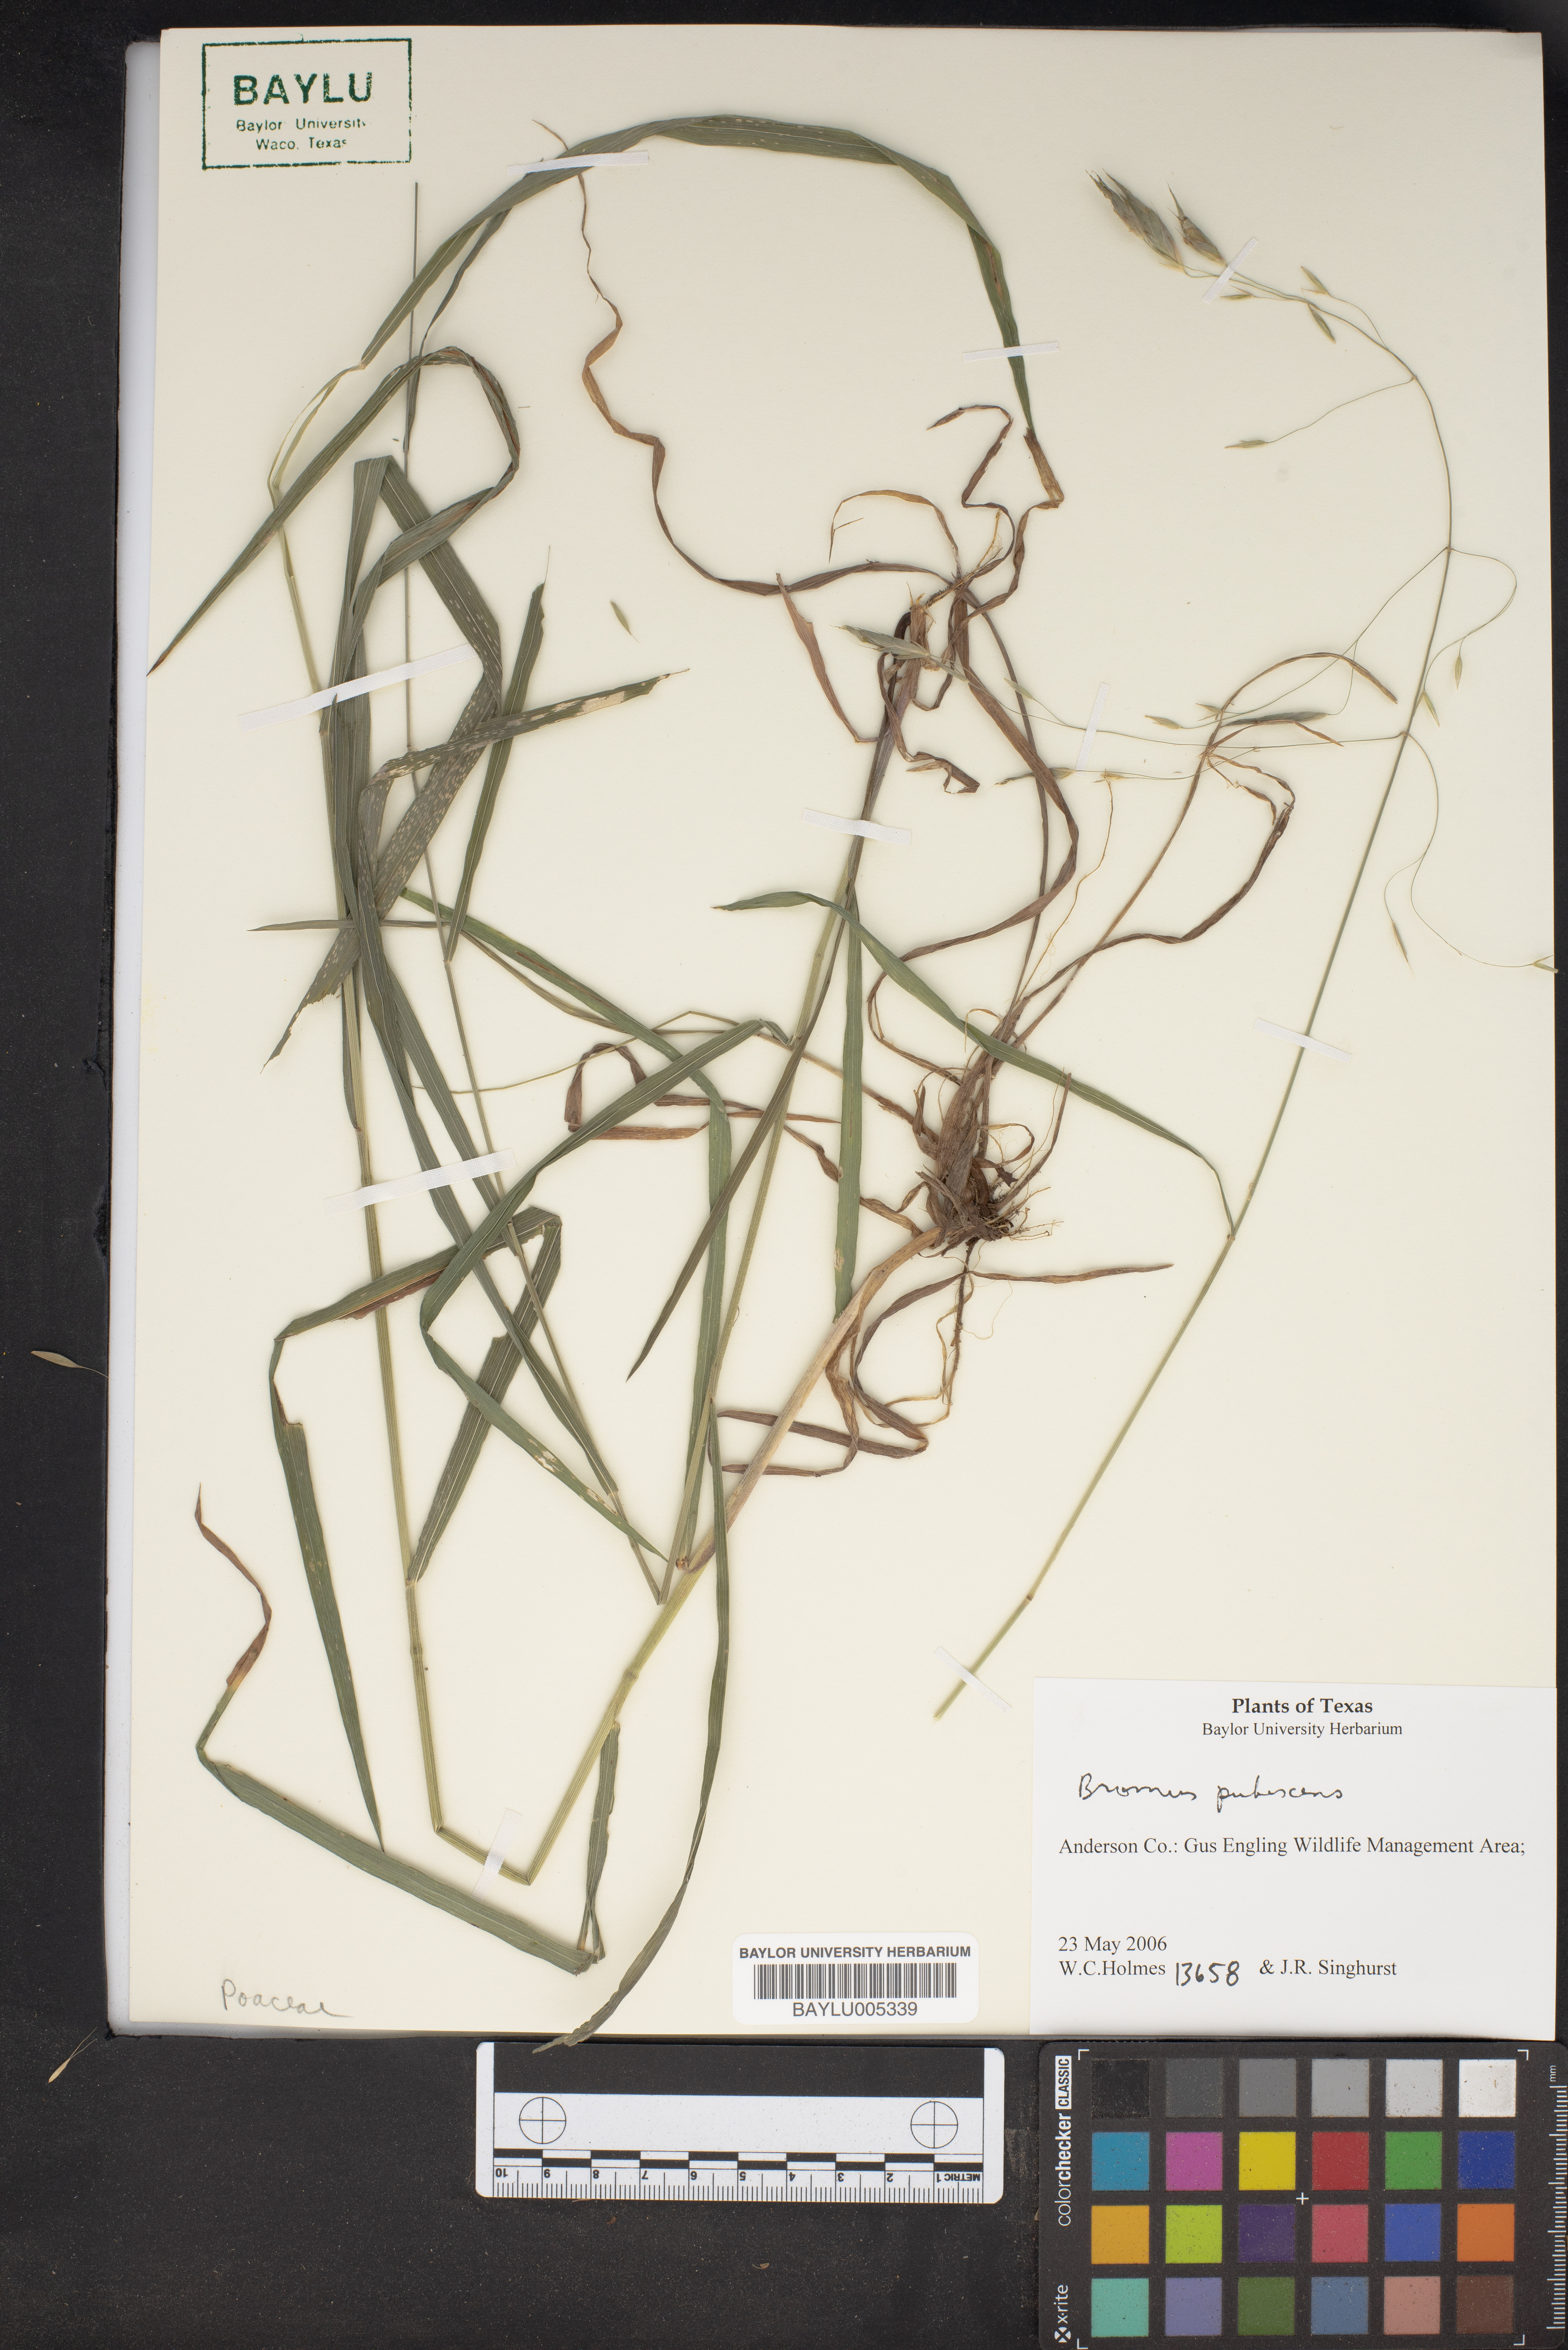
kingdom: Plantae
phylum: Tracheophyta
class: Liliopsida
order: Poales
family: Poaceae
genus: Bromus
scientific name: Bromus pubescens
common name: Hairy wood brome grass
